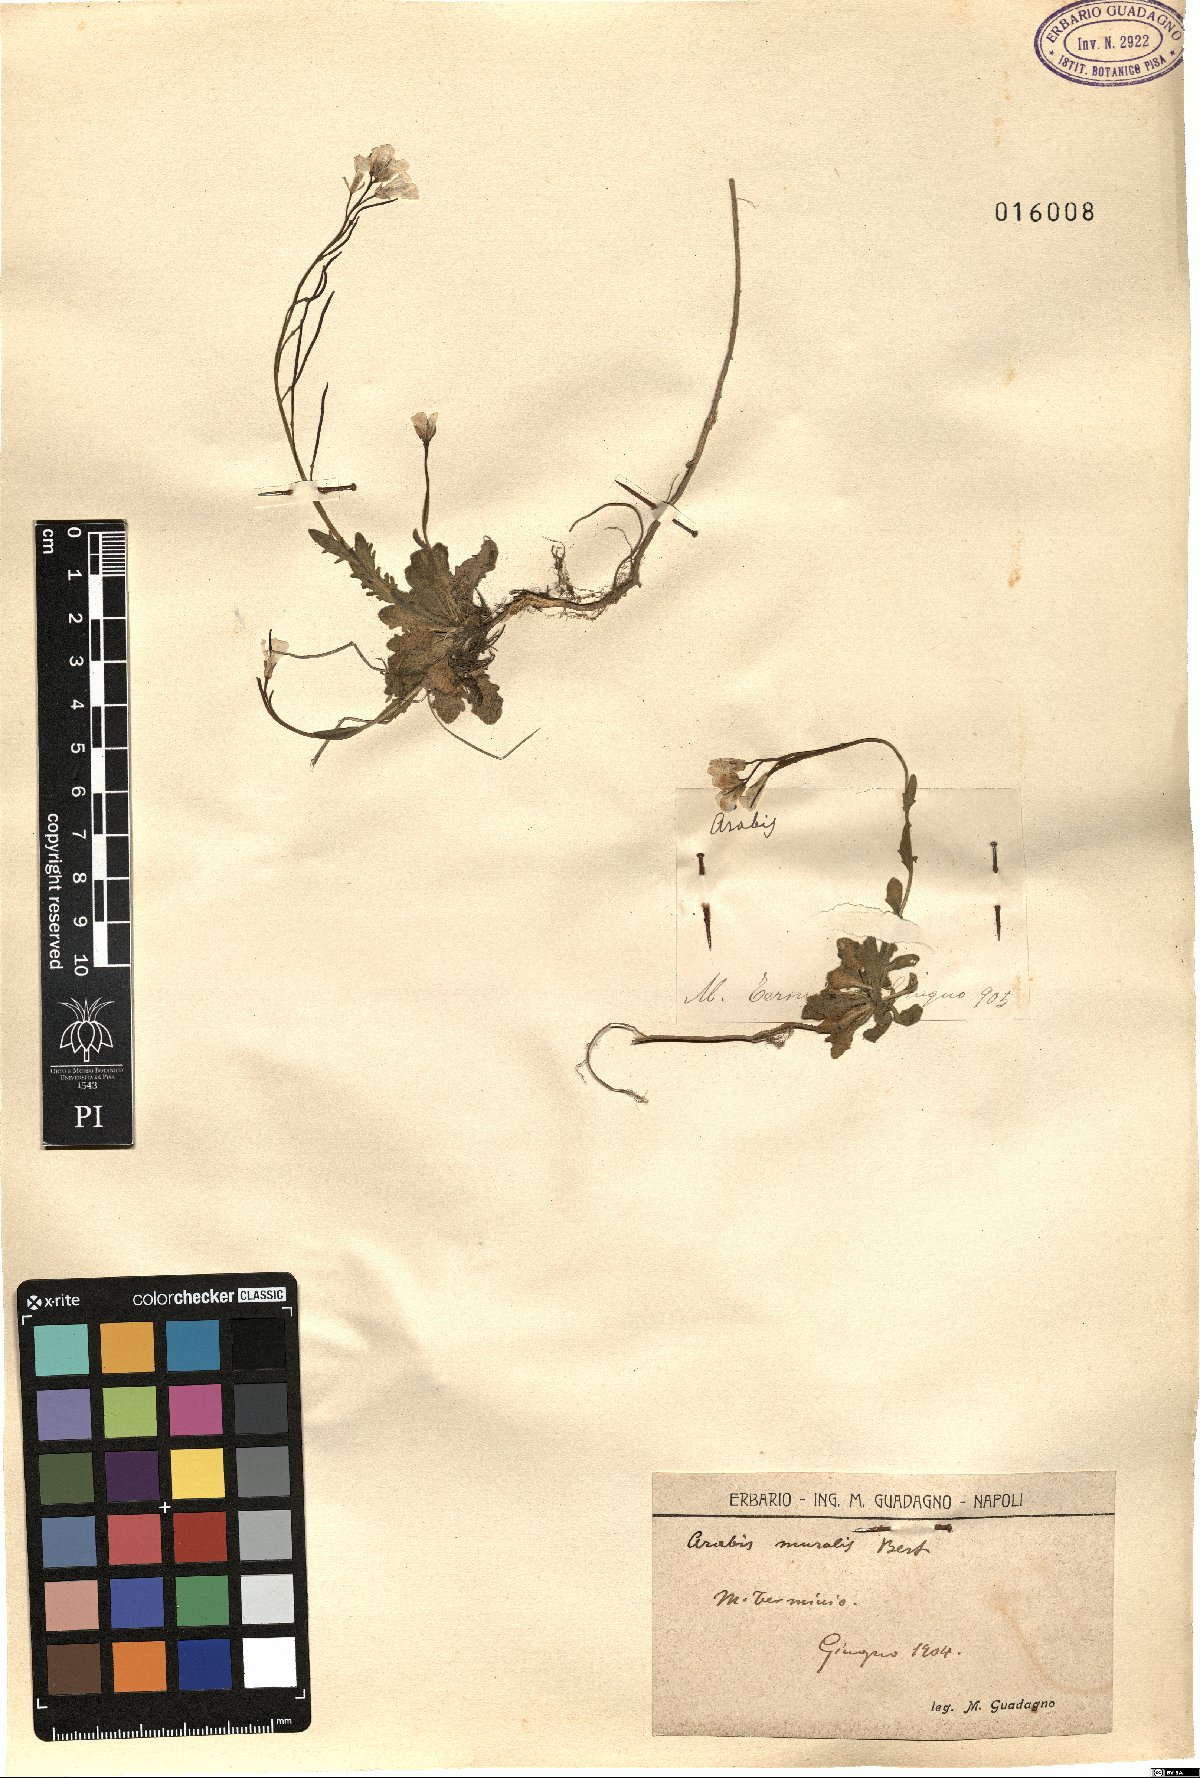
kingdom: Plantae
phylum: Tracheophyta
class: Magnoliopsida
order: Brassicales
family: Brassicaceae
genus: Arabis
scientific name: Arabis collina
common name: Rosy cress
